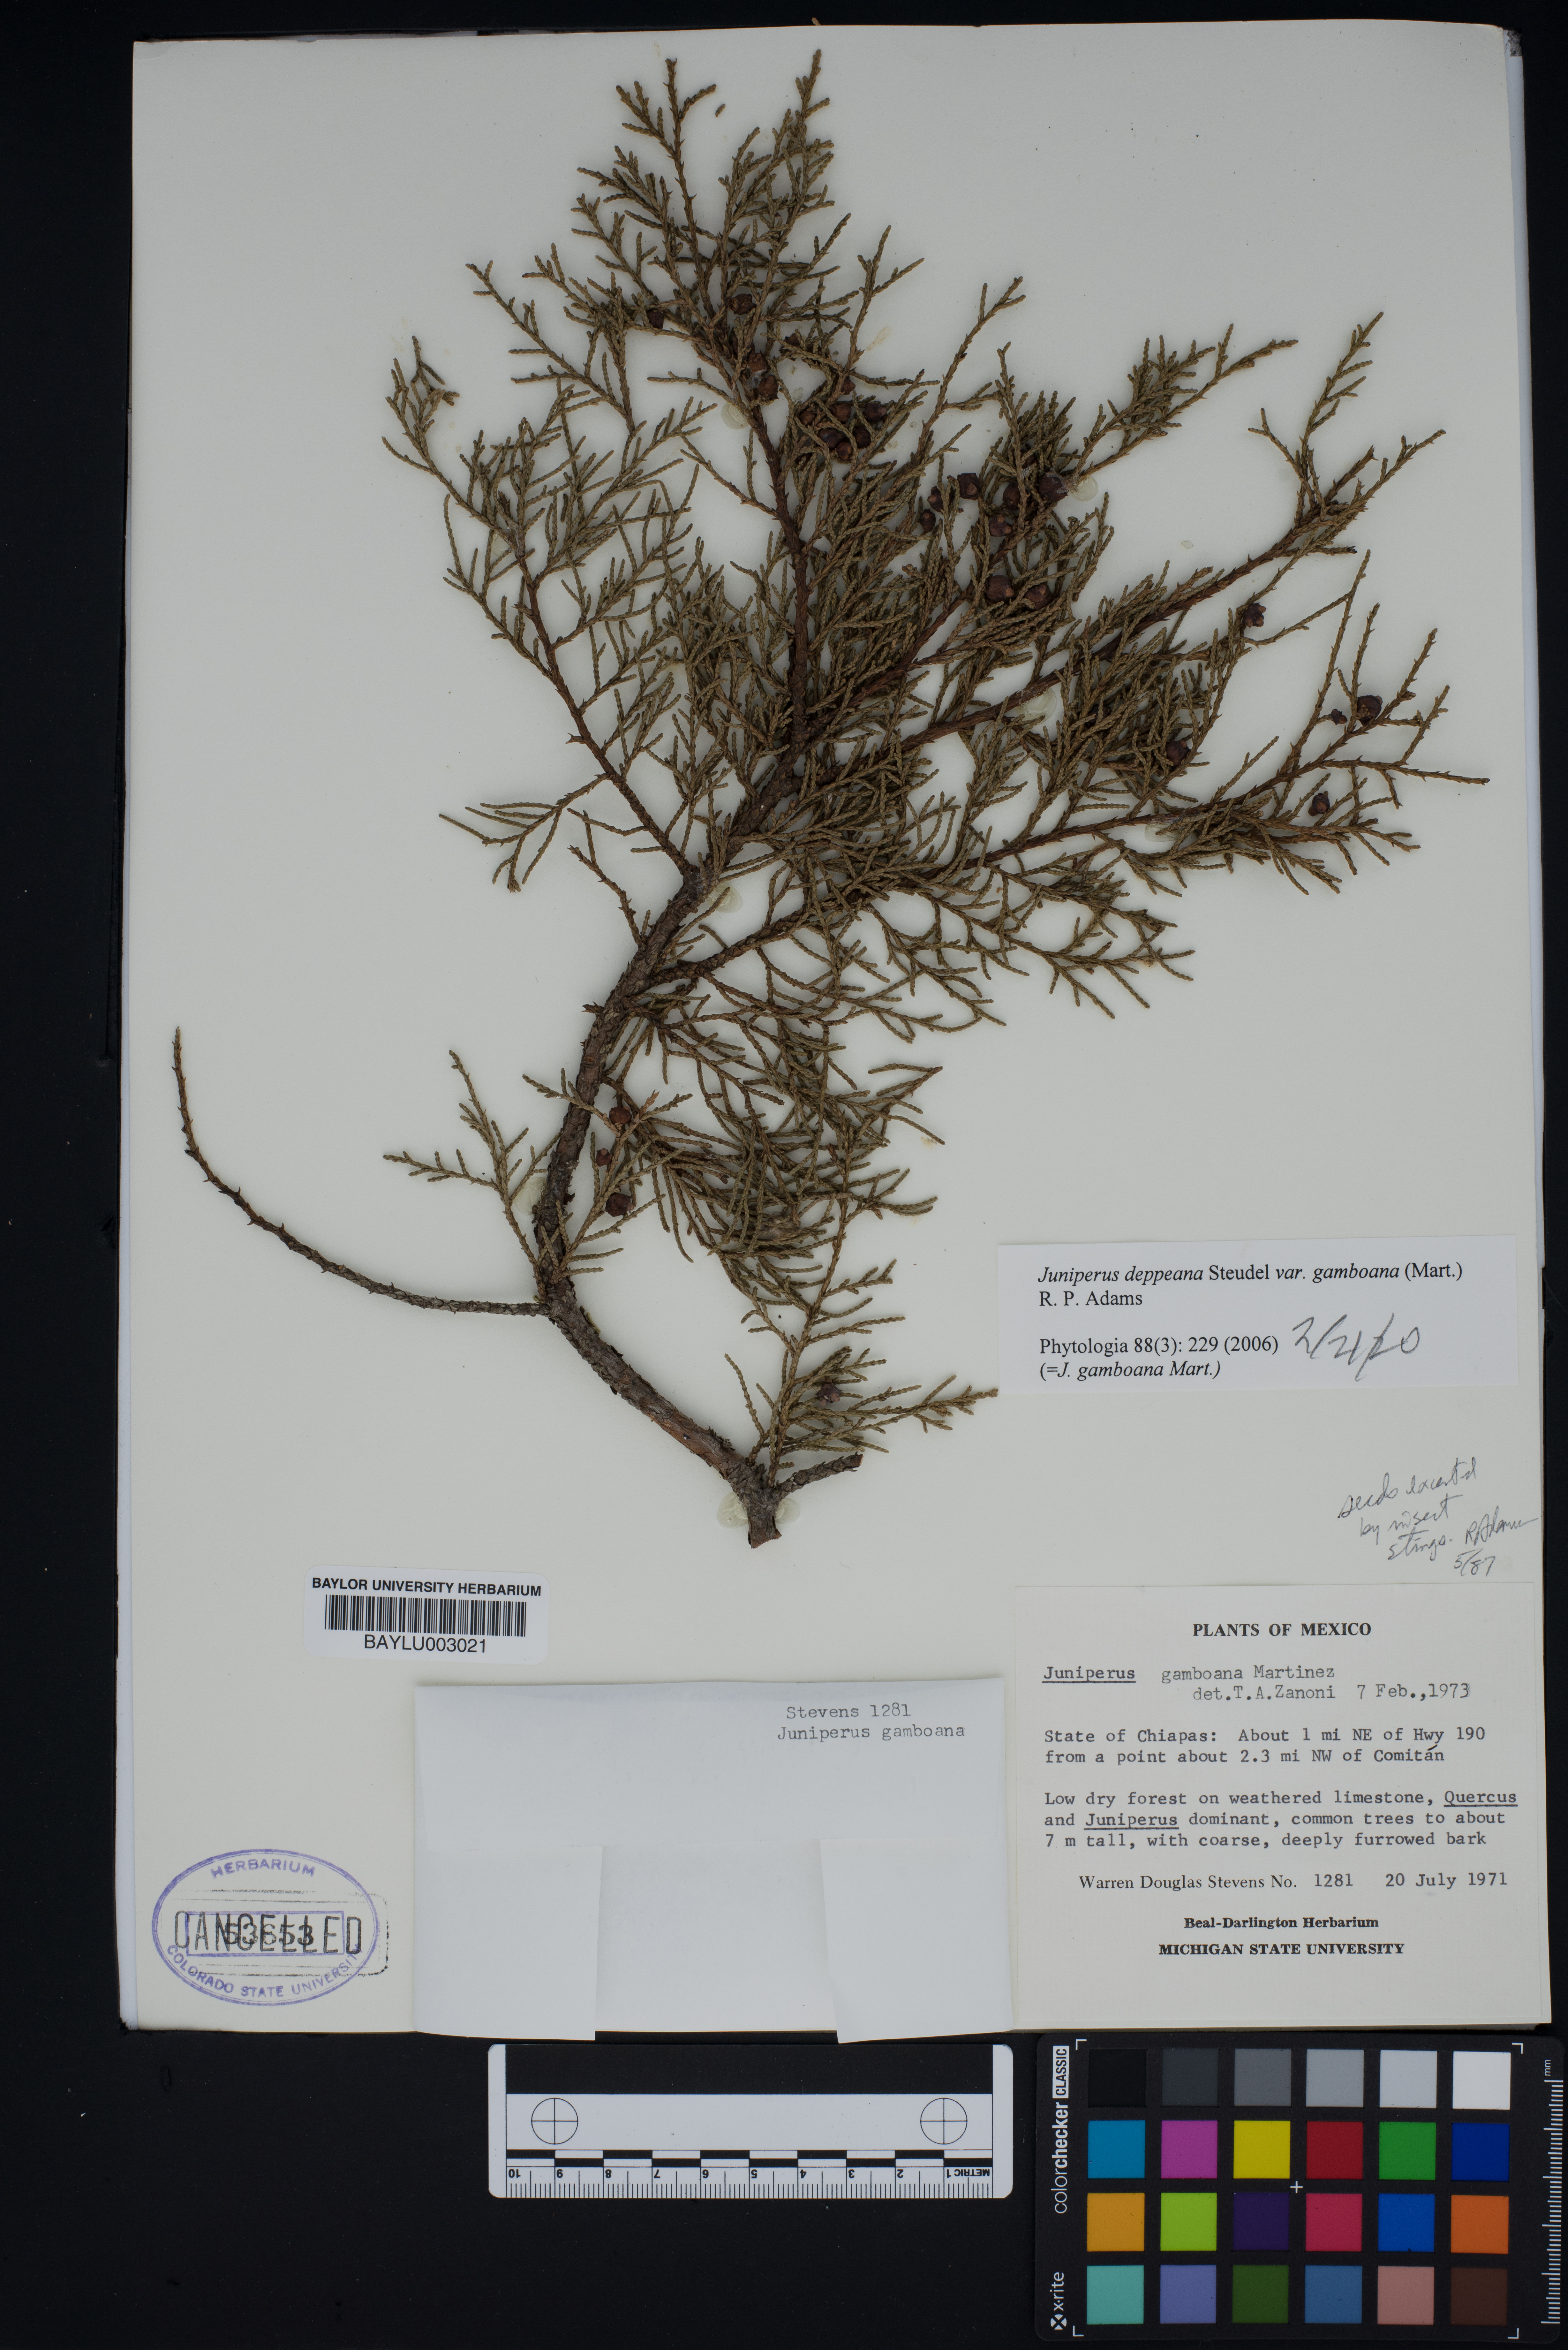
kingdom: Plantae
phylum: Tracheophyta
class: Pinopsida
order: Pinales
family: Cupressaceae
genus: Juniperus
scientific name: Juniperus gamboana
